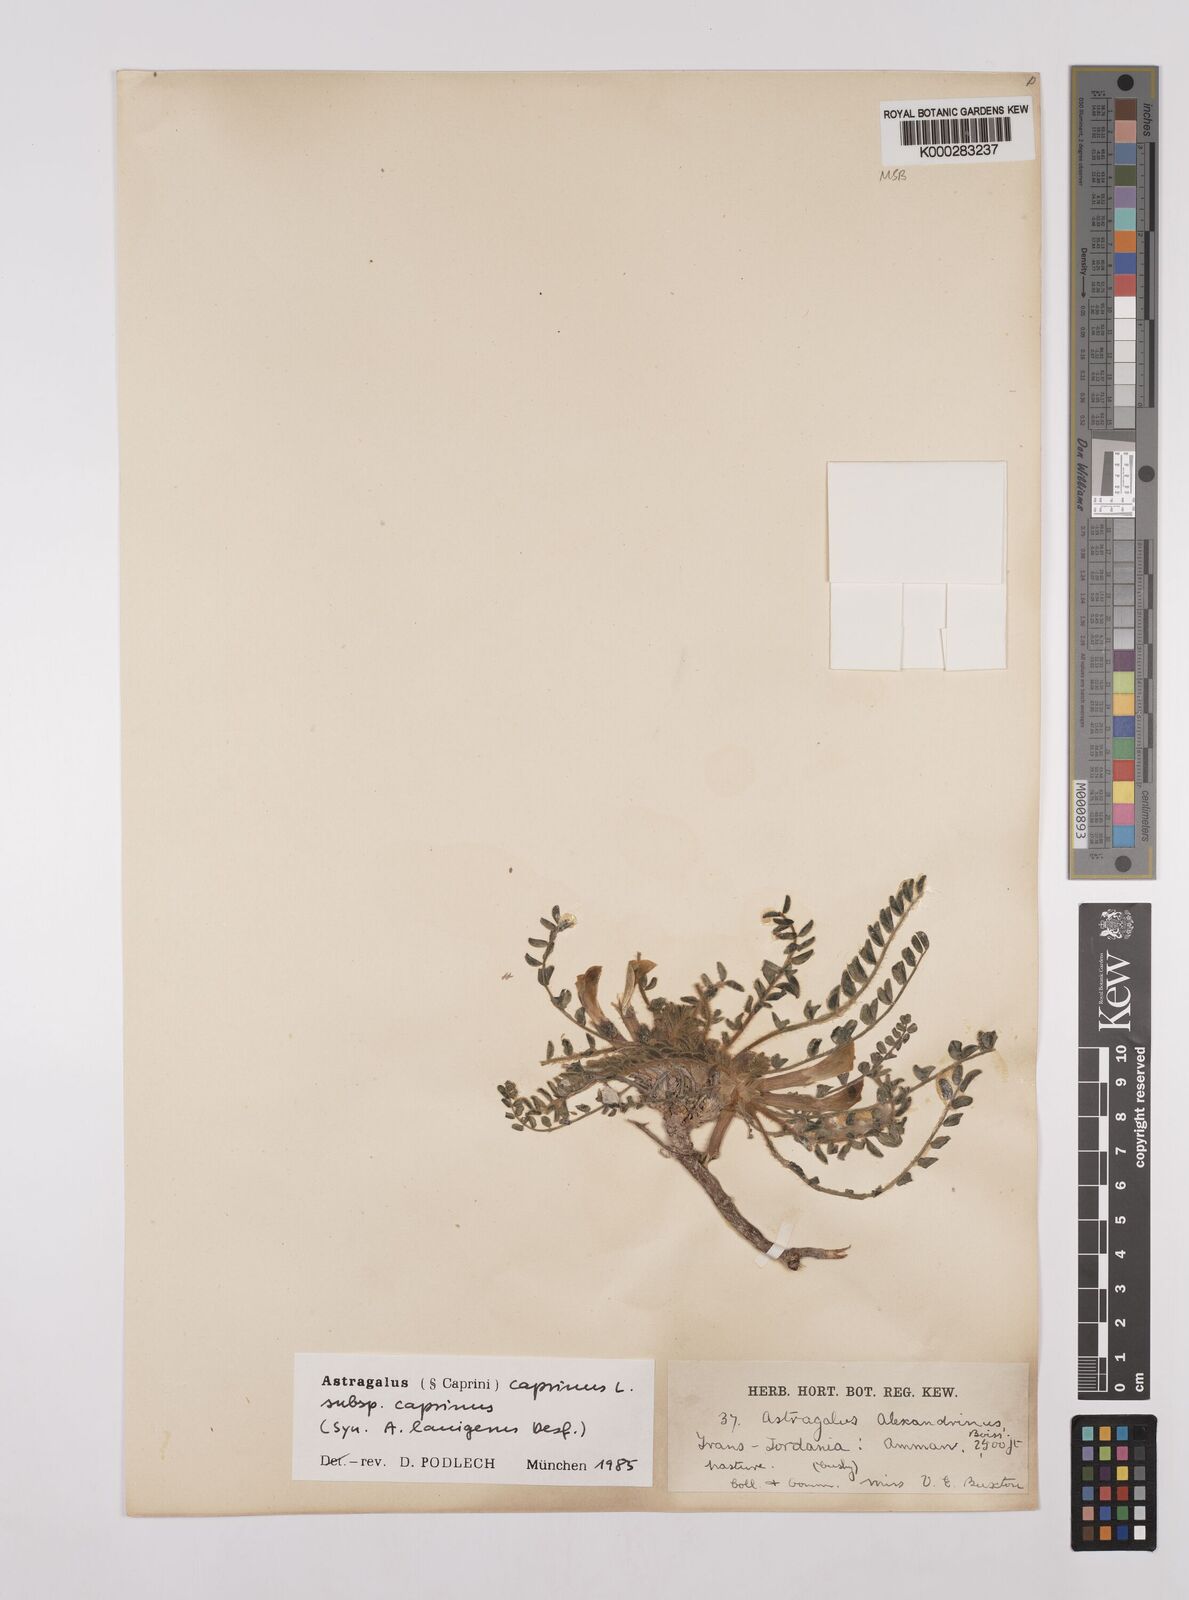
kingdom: Plantae
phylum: Tracheophyta
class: Magnoliopsida
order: Fabales
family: Fabaceae
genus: Astragalus
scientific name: Astragalus caprinus
